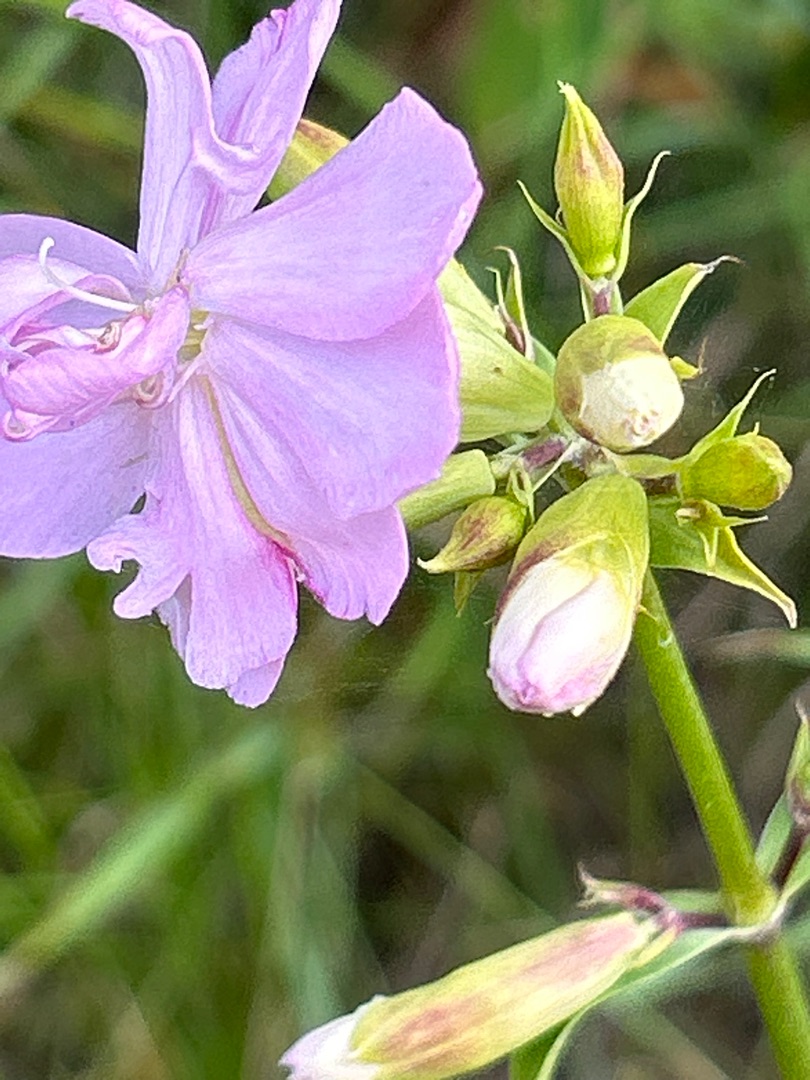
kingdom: Plantae
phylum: Tracheophyta
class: Magnoliopsida
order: Caryophyllales
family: Caryophyllaceae
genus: Saponaria
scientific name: Saponaria officinalis
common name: Sæbeurt
